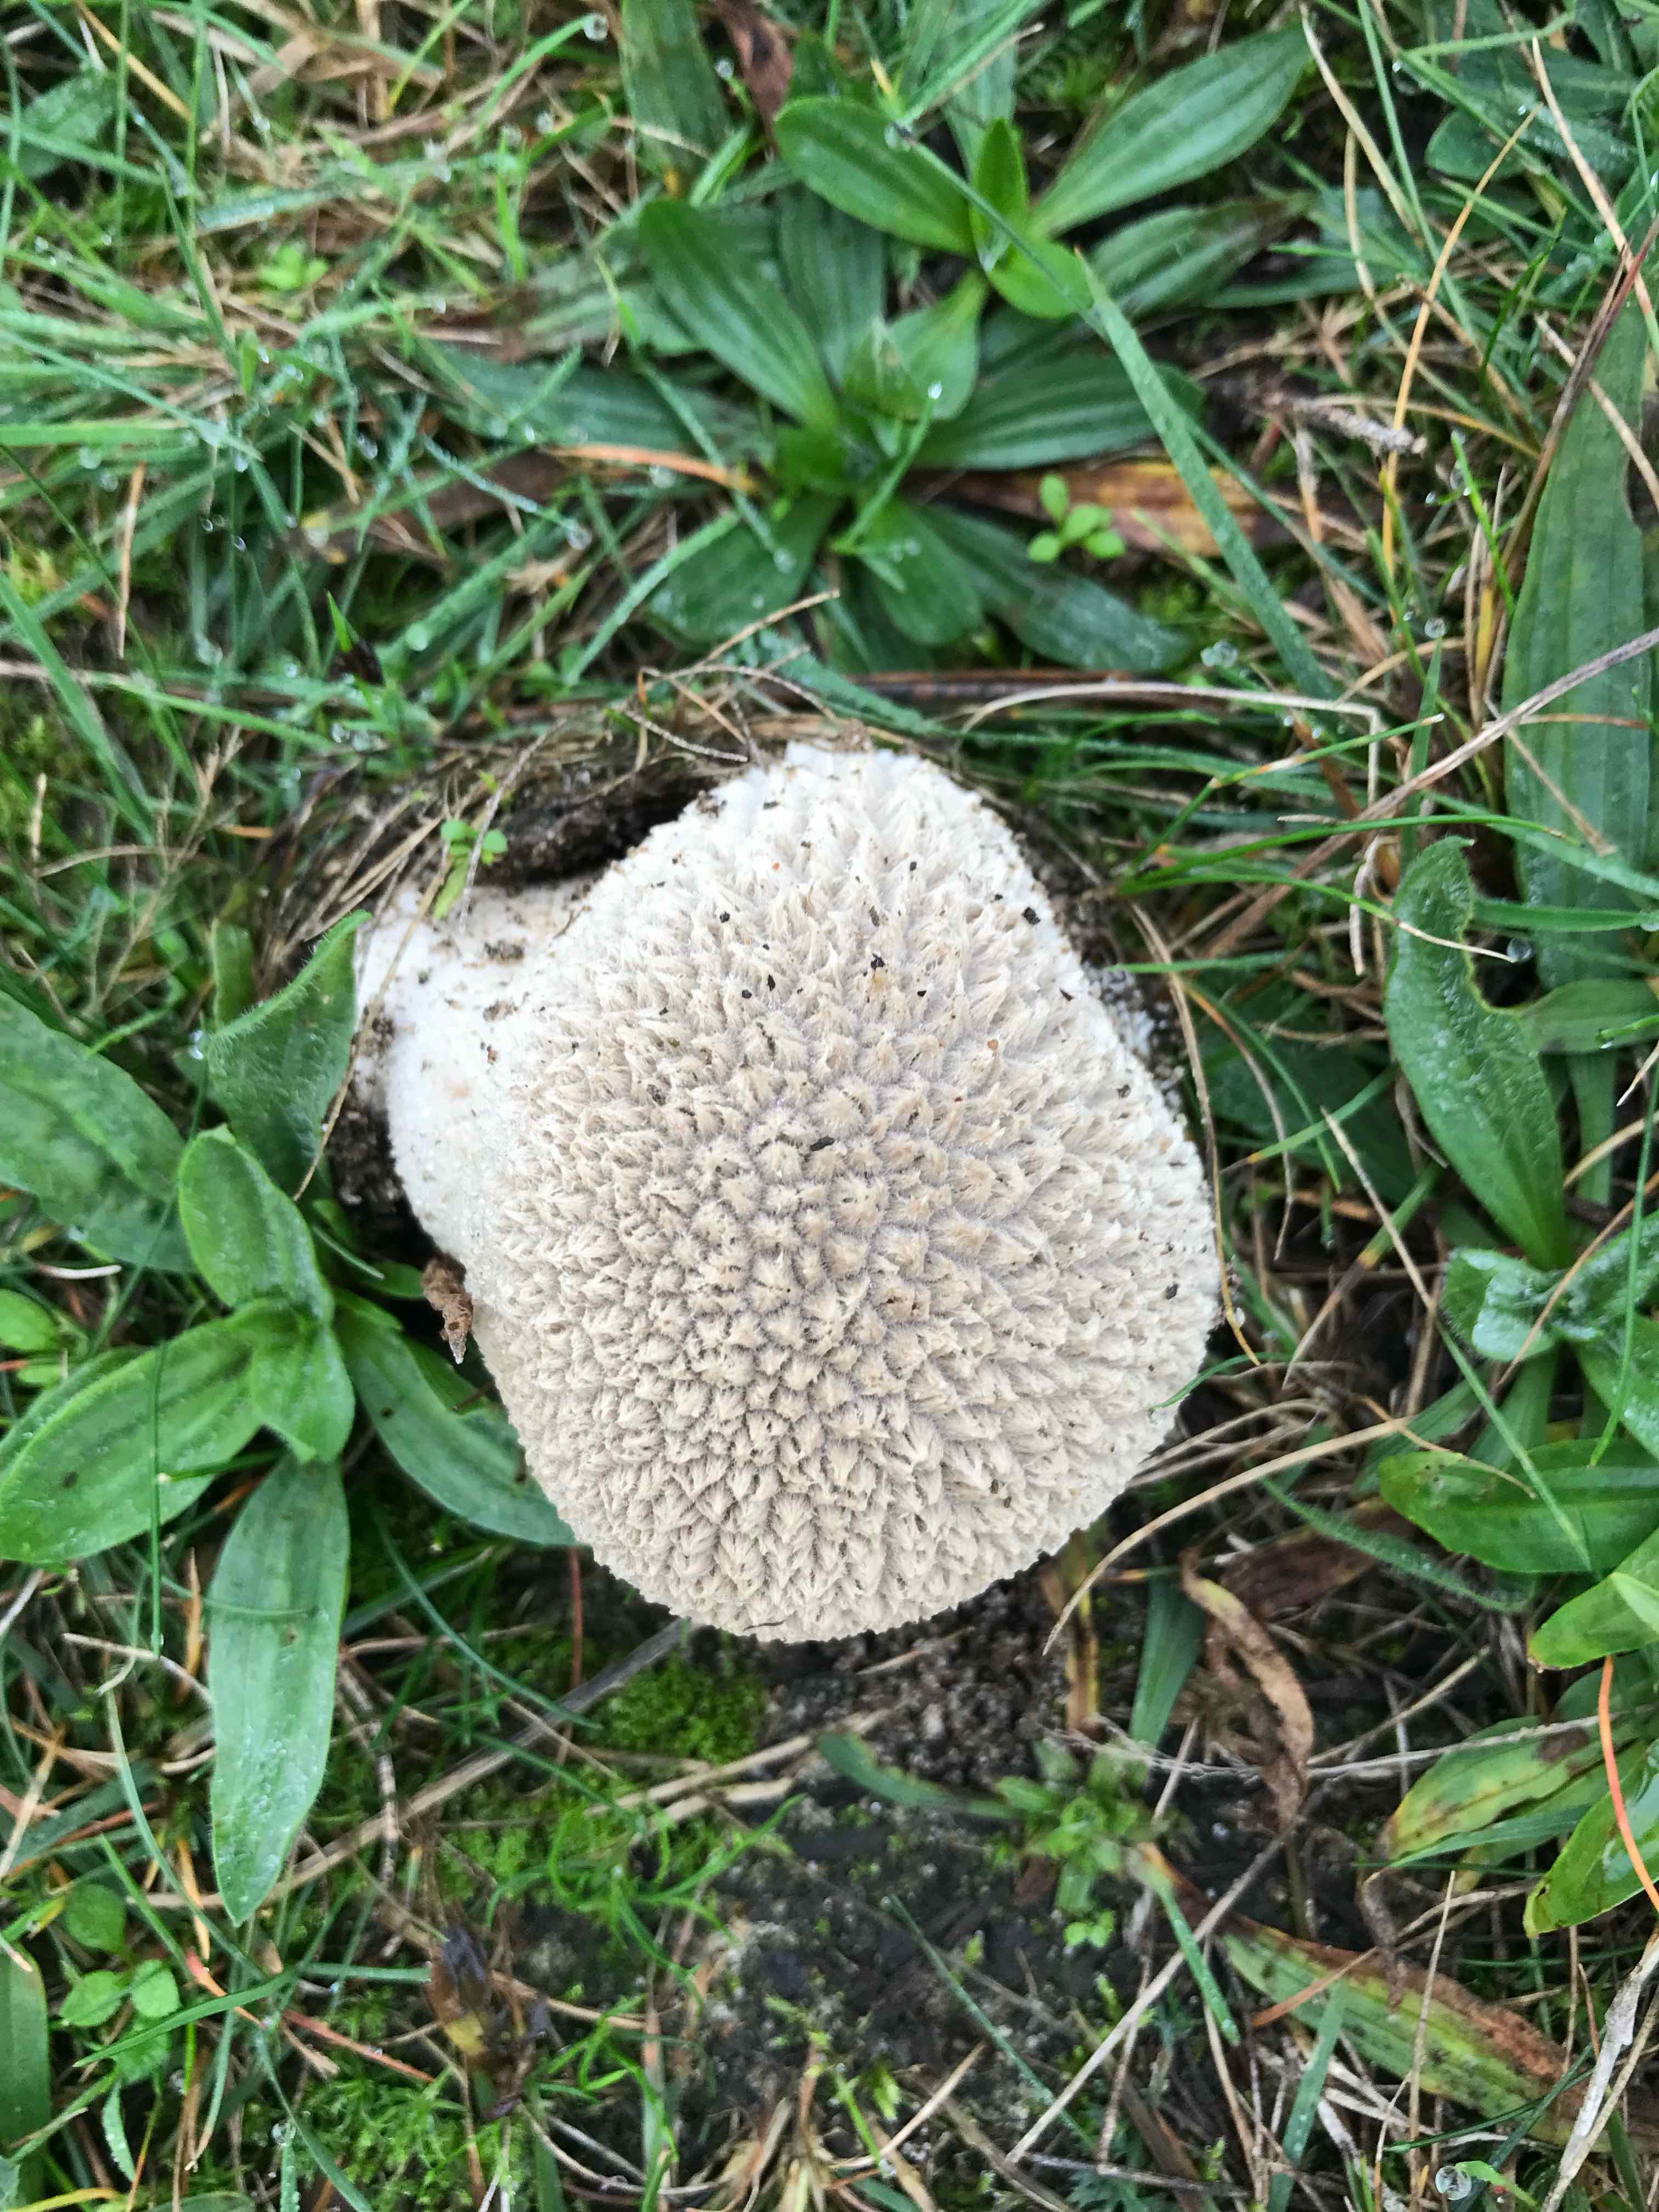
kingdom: Fungi
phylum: Basidiomycota
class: Agaricomycetes
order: Agaricales
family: Lycoperdaceae
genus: Bovistella
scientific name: Bovistella utriformis
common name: skællet støvbold
